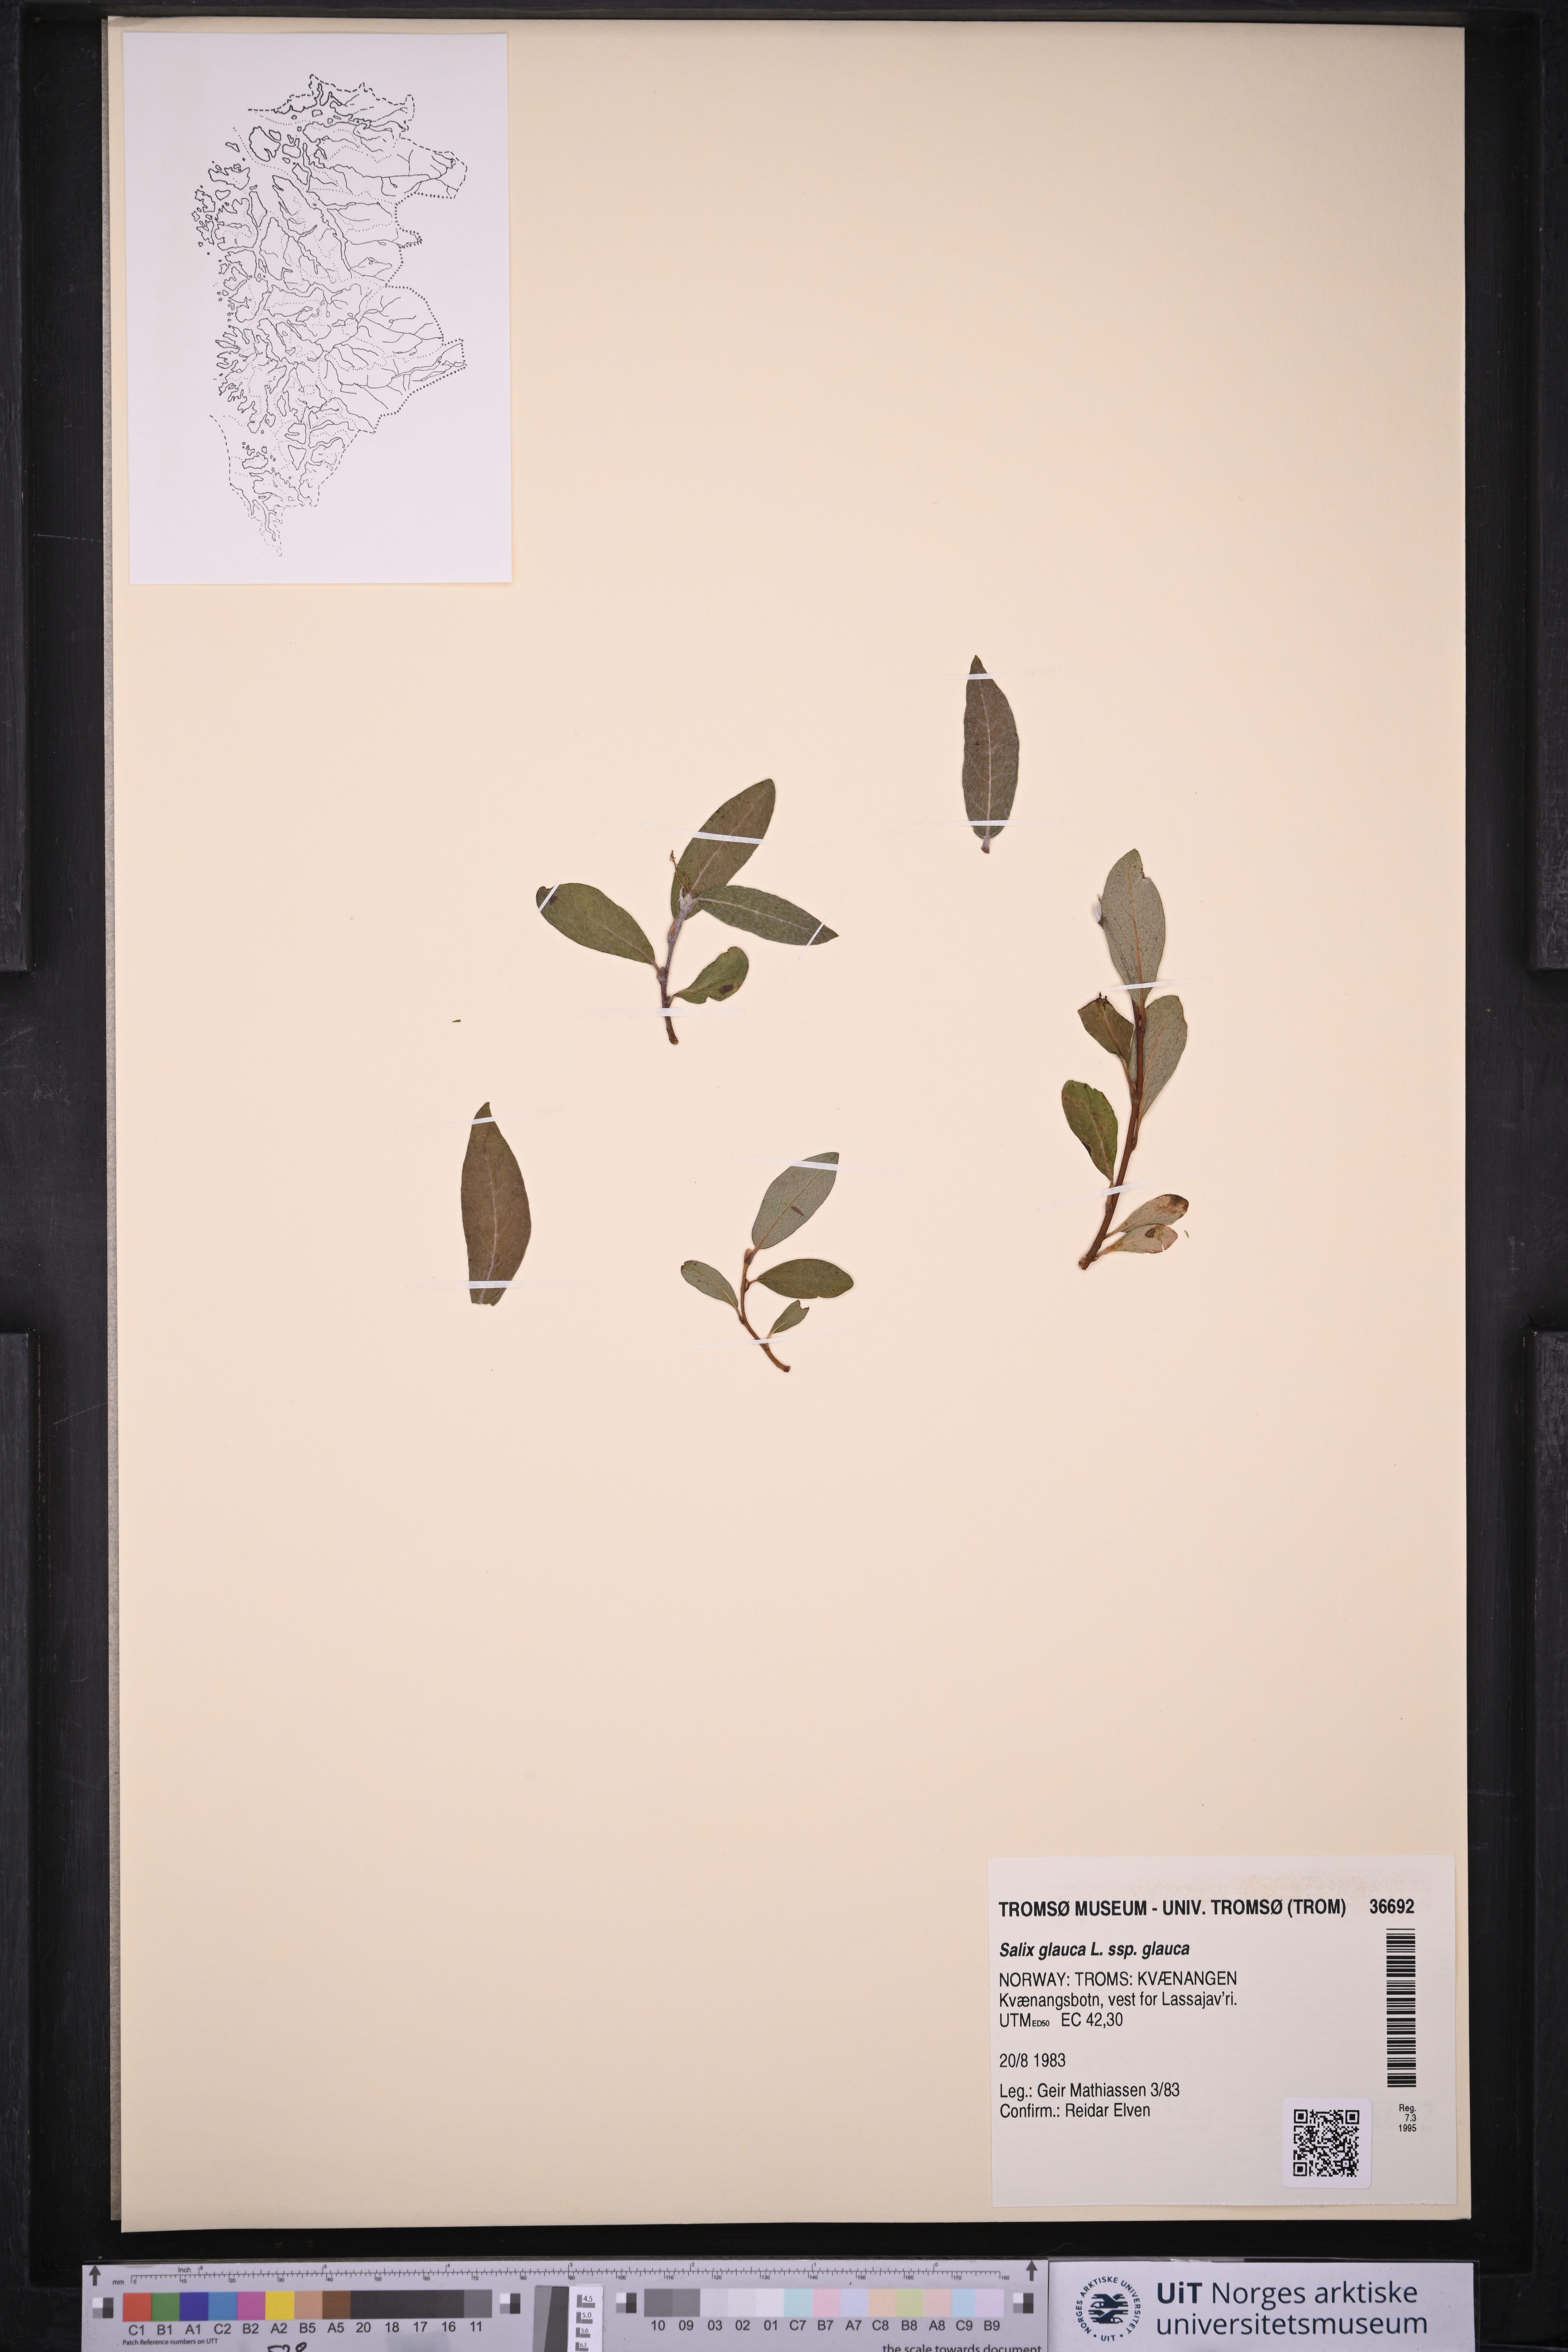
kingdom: Plantae
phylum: Tracheophyta
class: Magnoliopsida
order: Malpighiales
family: Salicaceae
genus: Salix
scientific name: Salix glauca
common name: Glaucous willow
